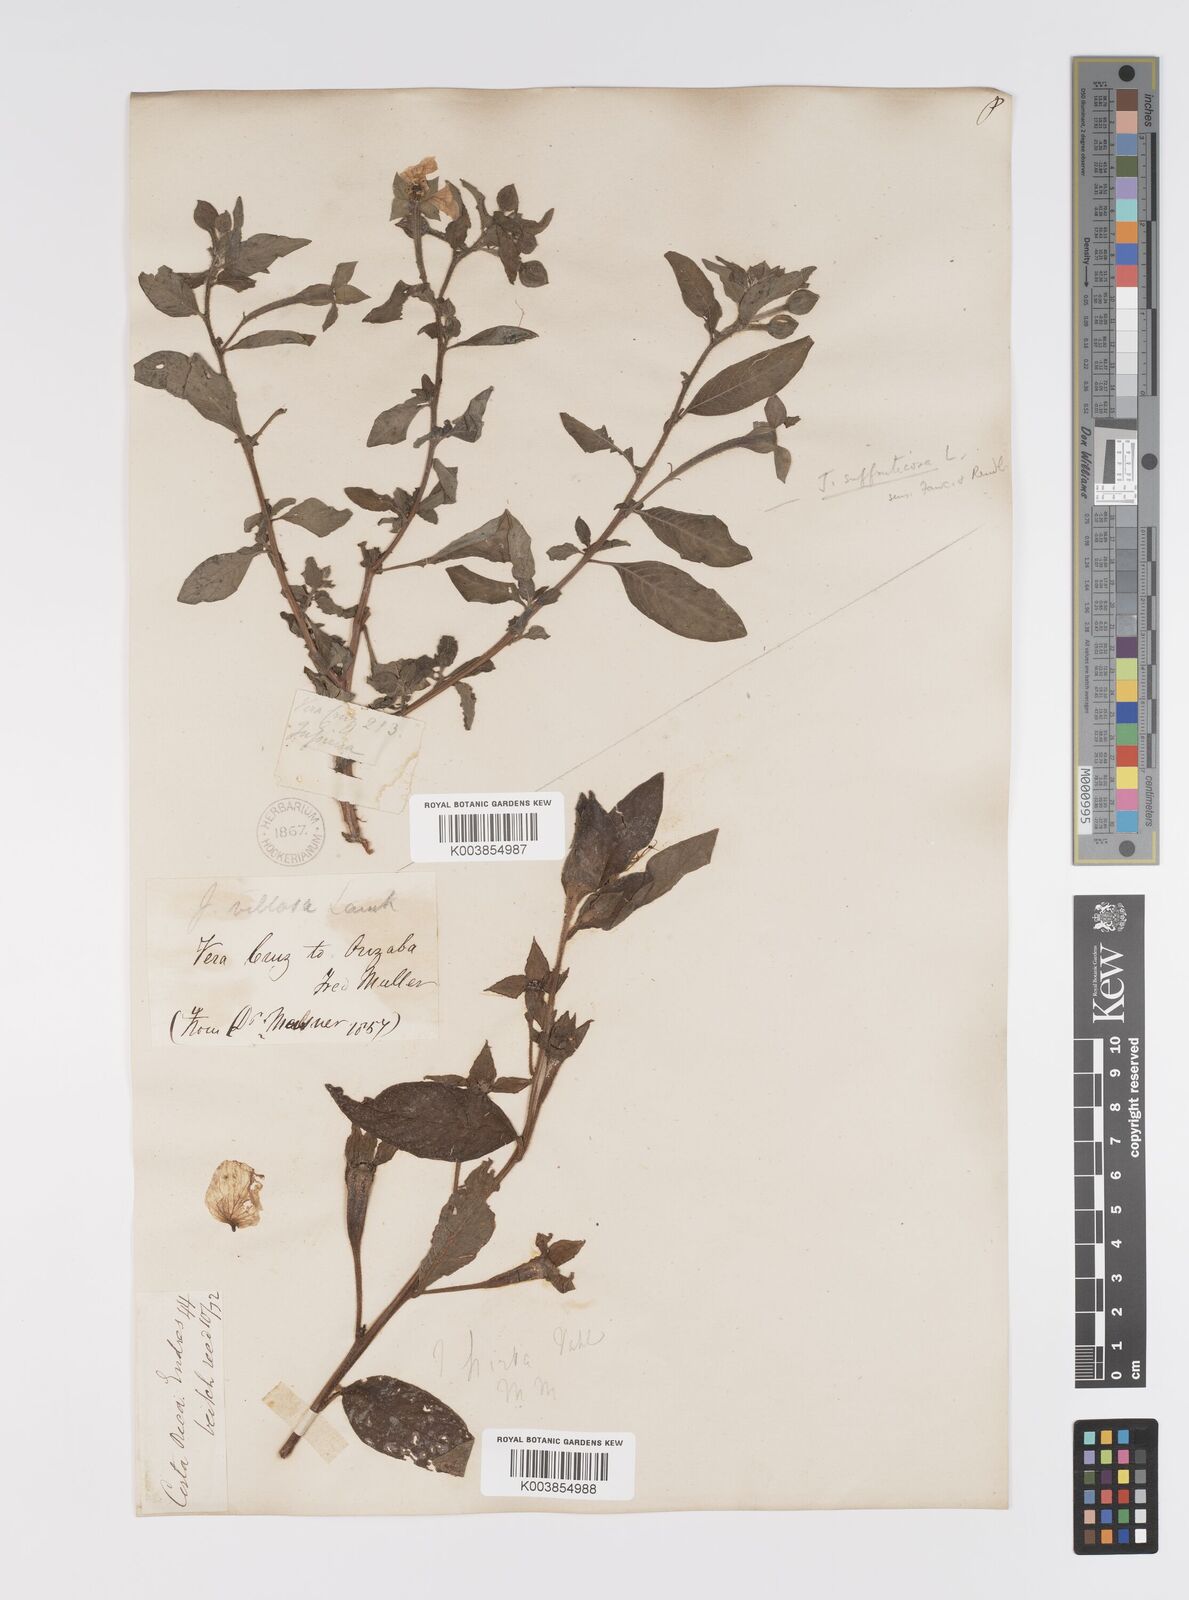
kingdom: Plantae
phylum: Tracheophyta
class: Magnoliopsida
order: Myrtales
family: Onagraceae
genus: Ludwigia
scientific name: Ludwigia peruviana
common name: Peruvian primrose-willow
